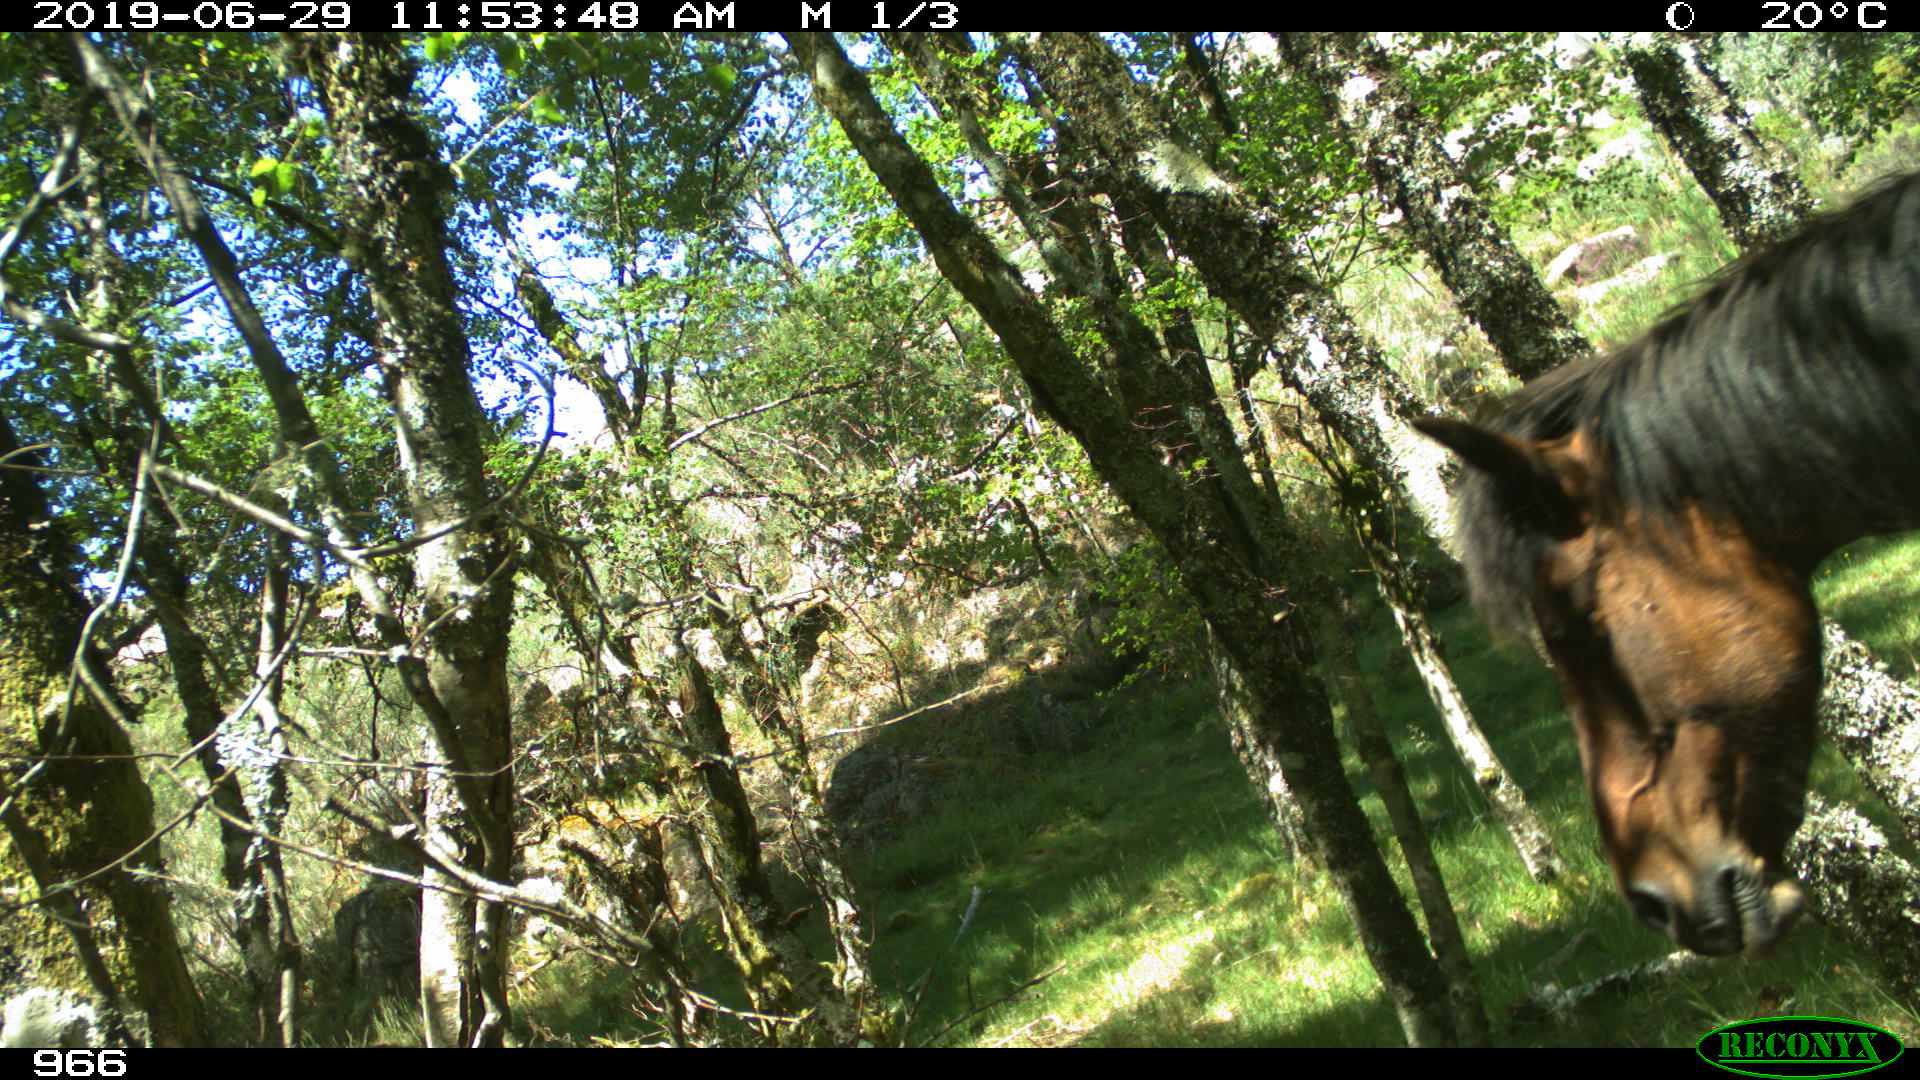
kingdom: Animalia
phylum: Chordata
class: Mammalia
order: Perissodactyla
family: Equidae
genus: Equus
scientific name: Equus caballus
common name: Horse
